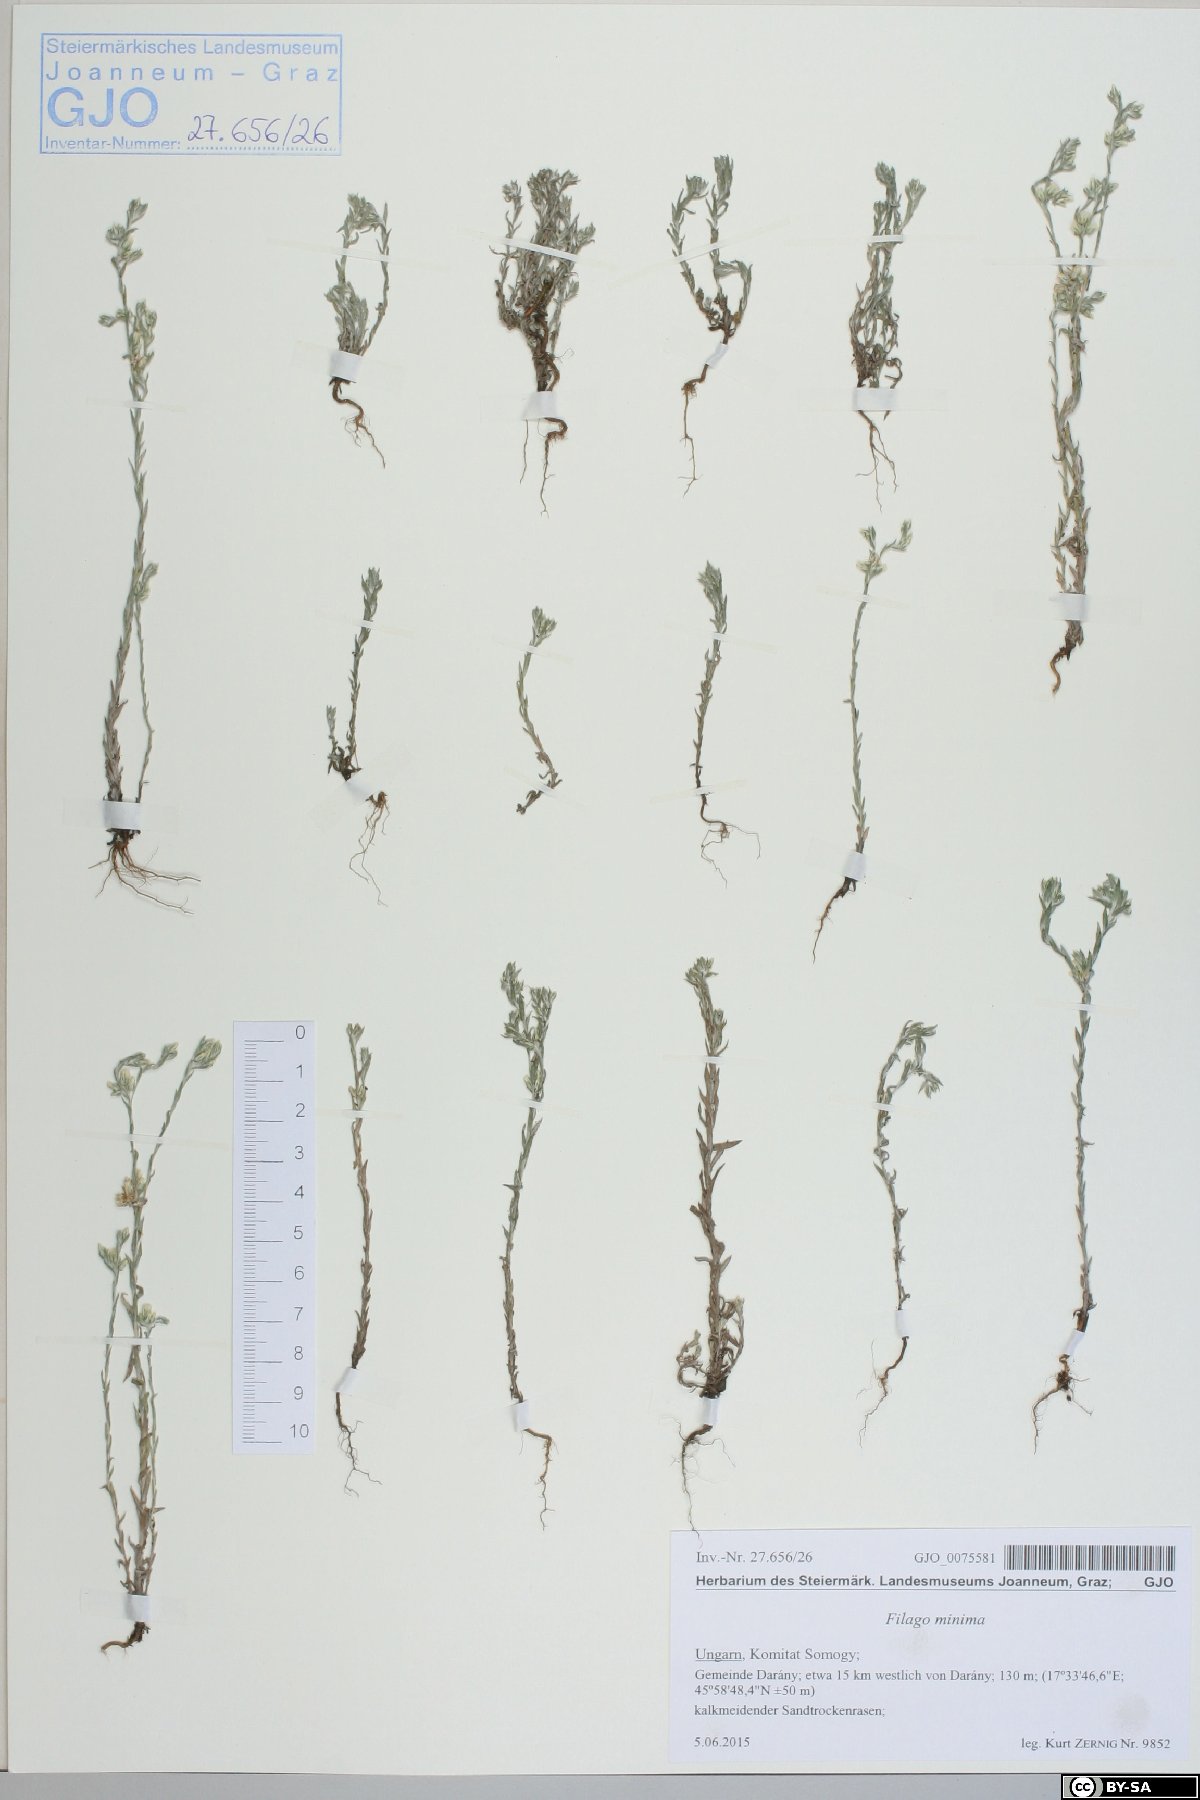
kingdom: Plantae
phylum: Tracheophyta
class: Magnoliopsida
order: Asterales
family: Asteraceae
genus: Logfia
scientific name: Logfia minima
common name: Little cottonrose
